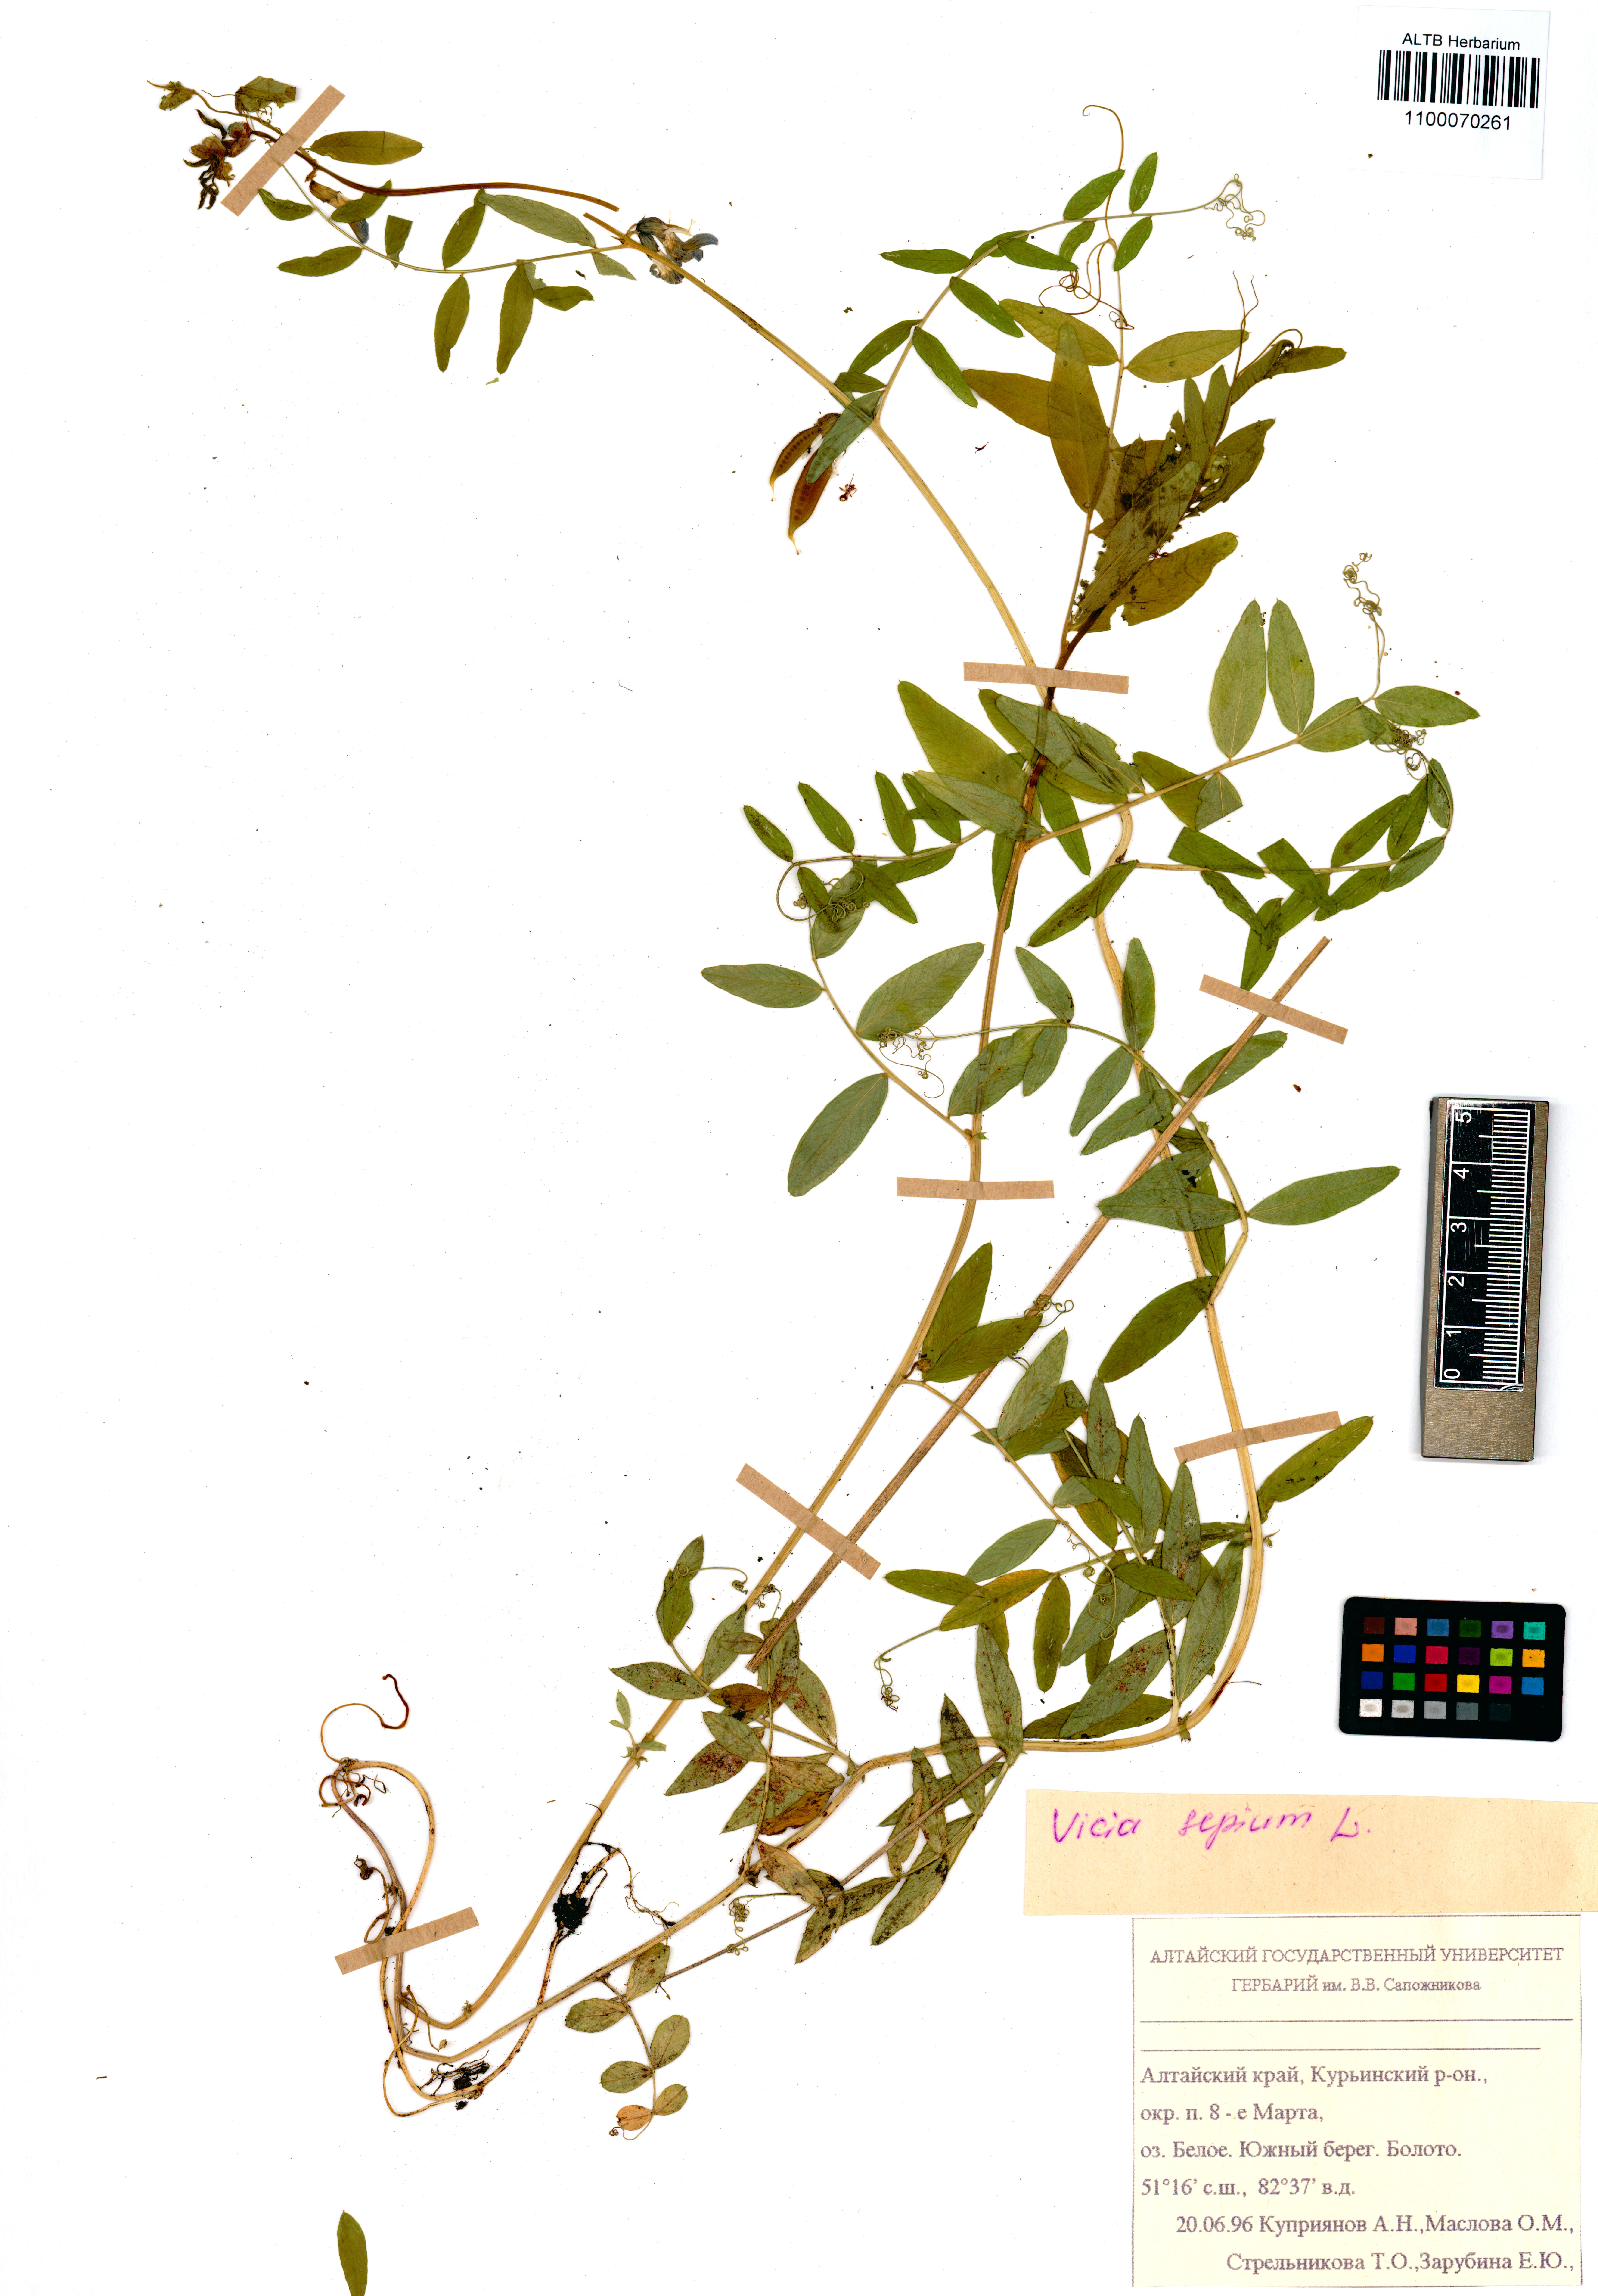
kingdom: Plantae
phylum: Tracheophyta
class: Magnoliopsida
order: Fabales
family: Fabaceae
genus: Vicia
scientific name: Vicia sepium
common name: Bush vetch
